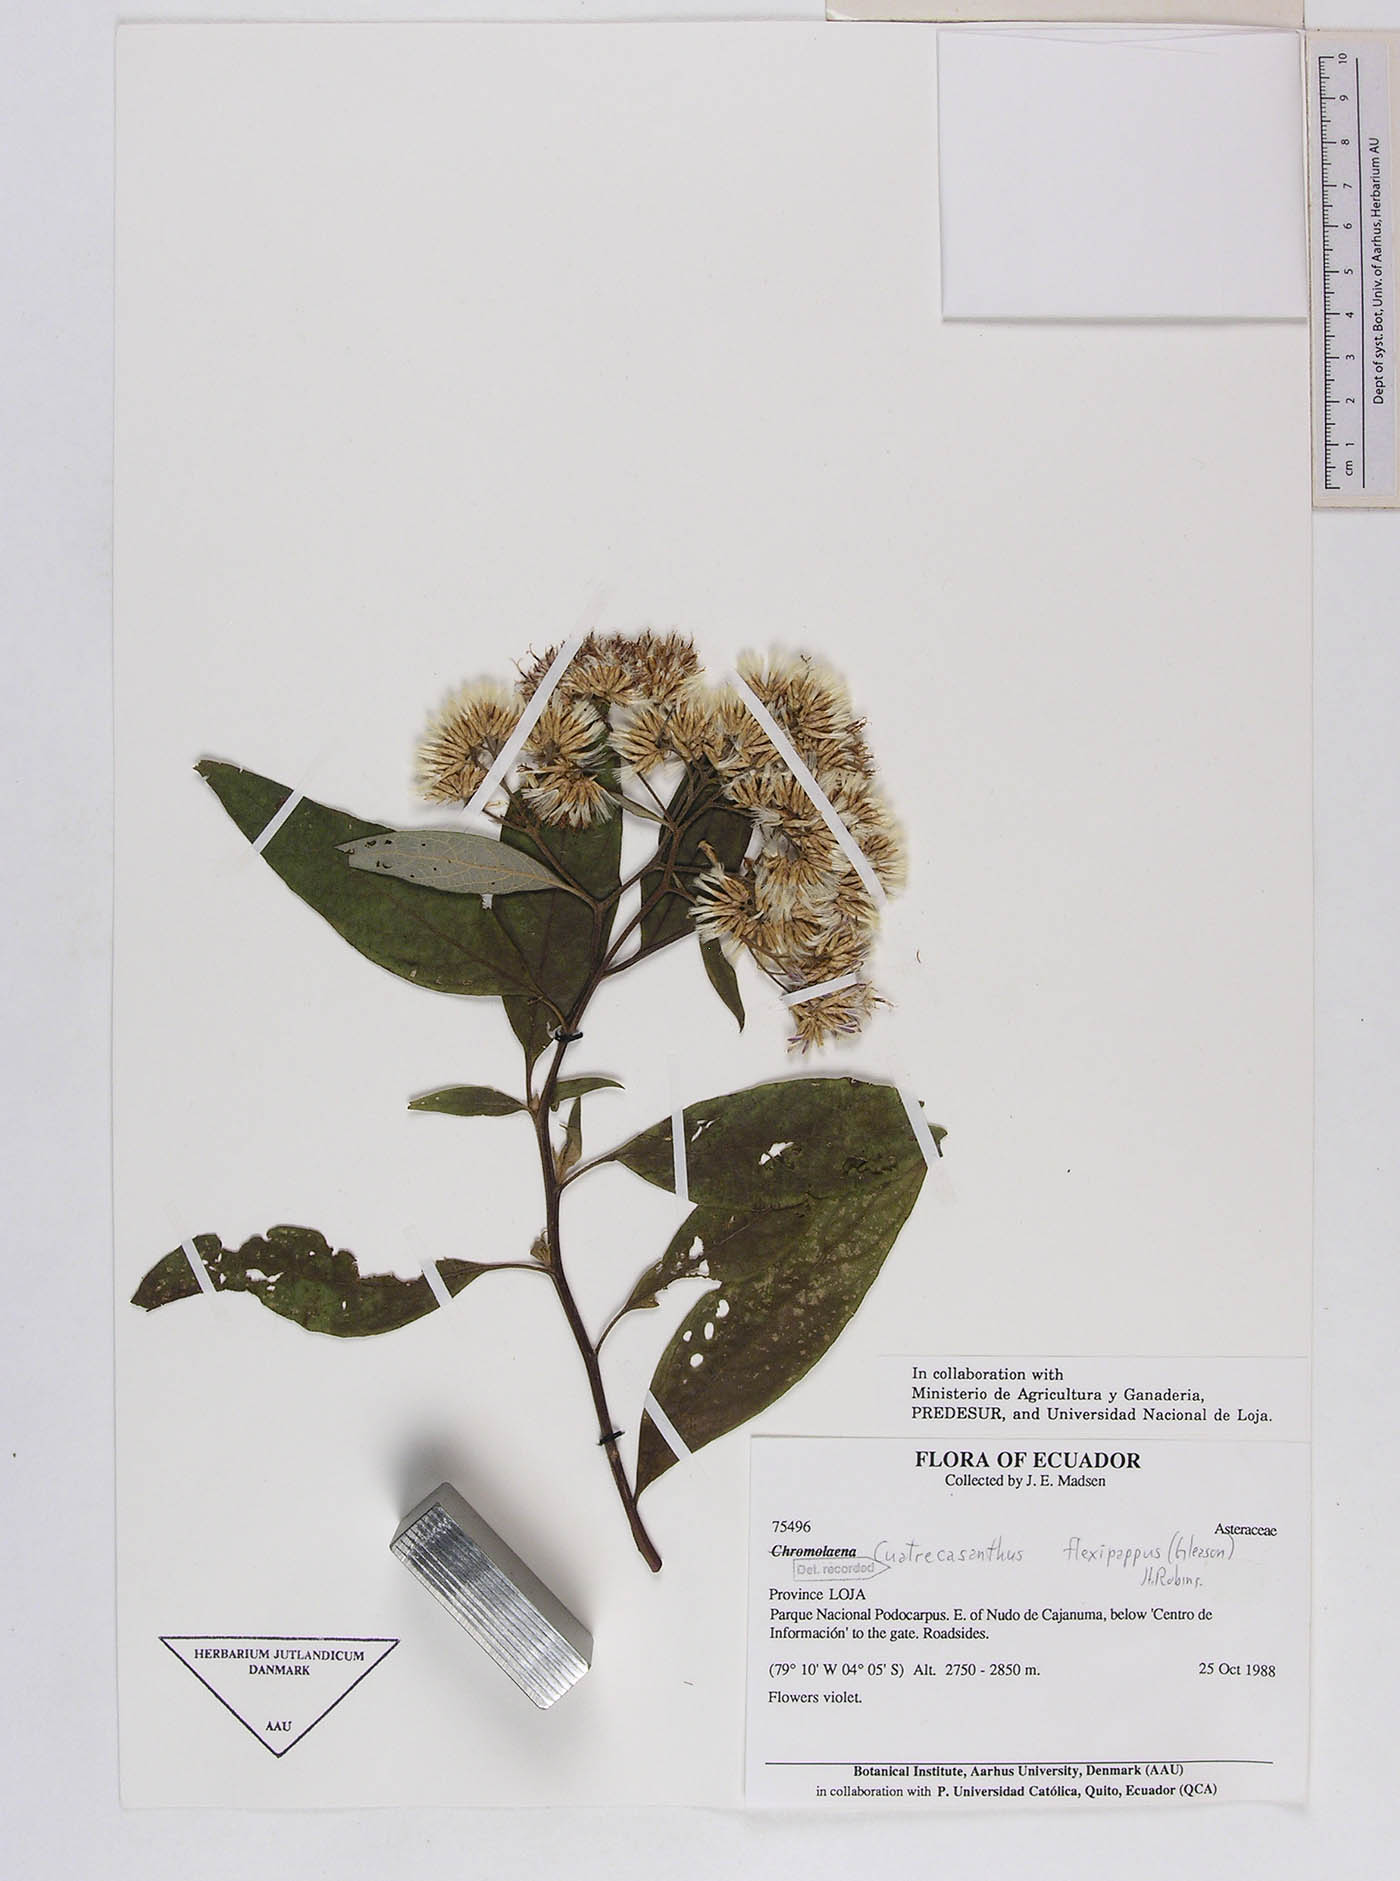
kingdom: Plantae
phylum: Tracheophyta
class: Magnoliopsida
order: Asterales
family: Asteraceae
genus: Cuatrecasanthus
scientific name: Cuatrecasanthus flexipappus
